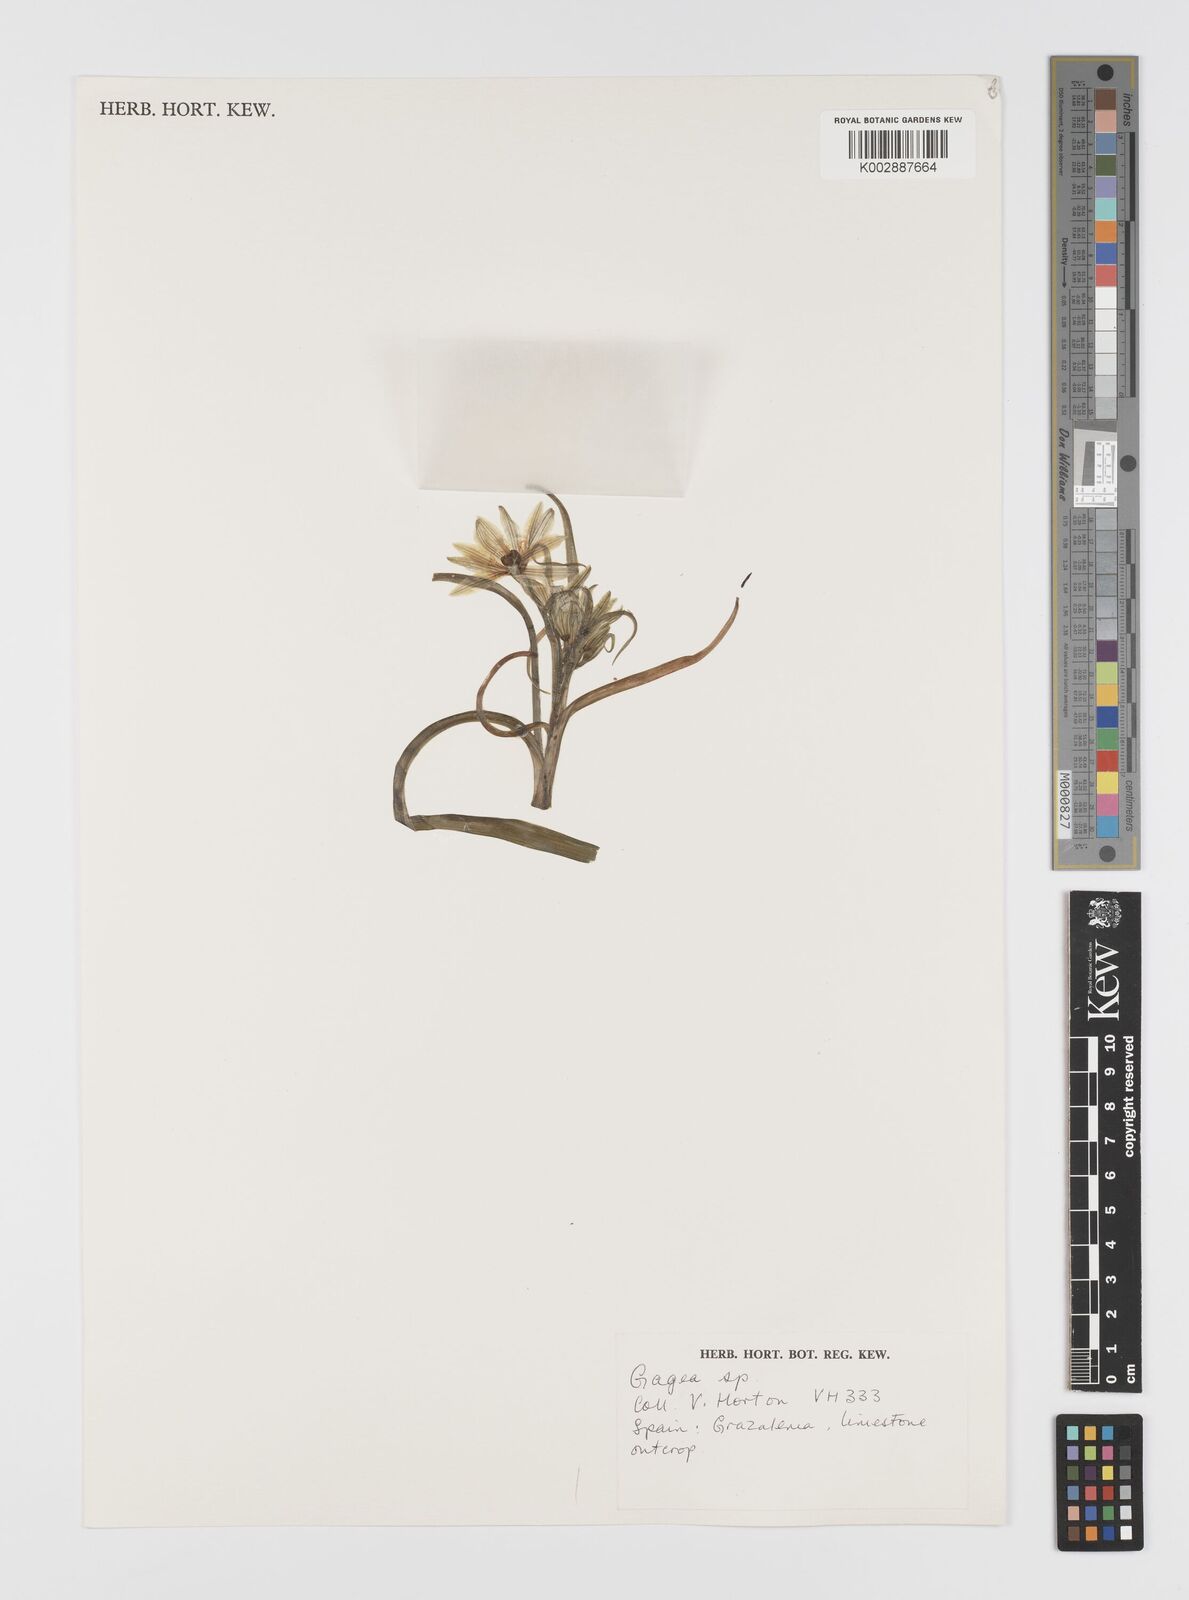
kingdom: Plantae
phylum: Tracheophyta
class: Liliopsida
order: Liliales
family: Liliaceae
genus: Gagea
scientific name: Gagea
